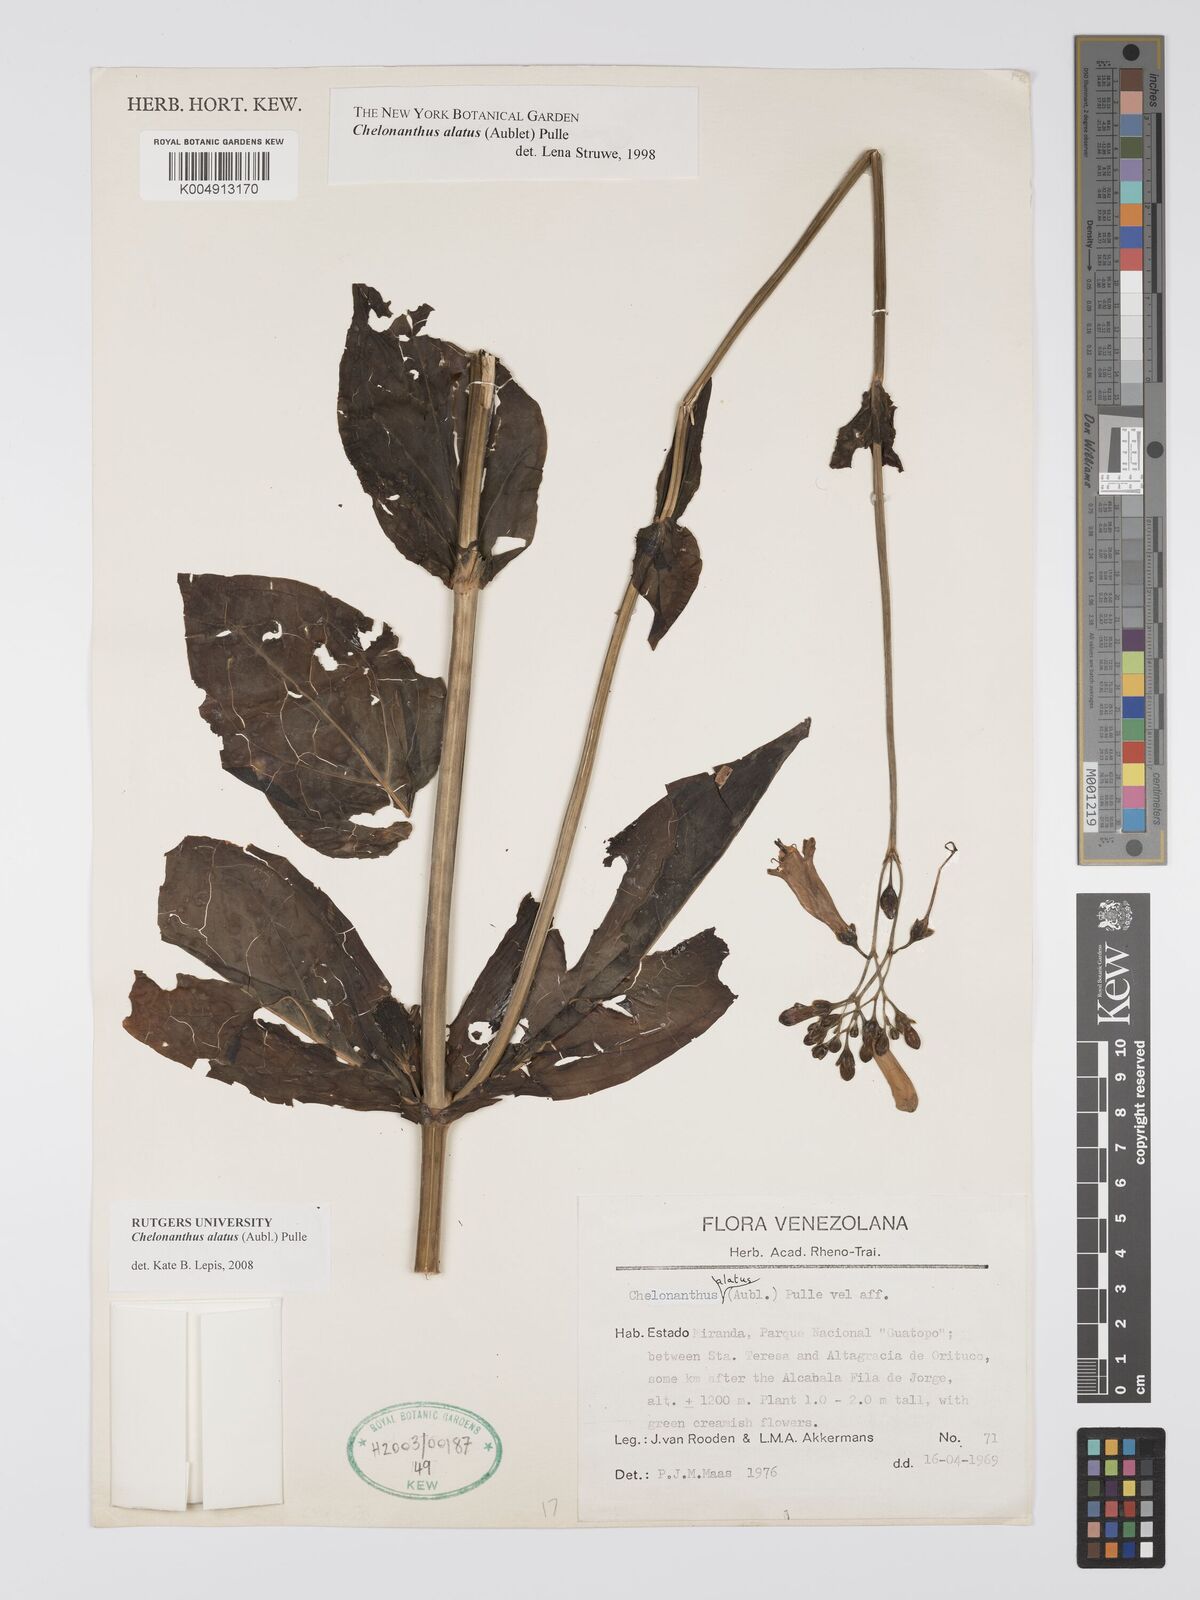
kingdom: Plantae
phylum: Tracheophyta
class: Magnoliopsida
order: Gentianales
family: Gentianaceae
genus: Chelonanthus
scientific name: Chelonanthus alatus
